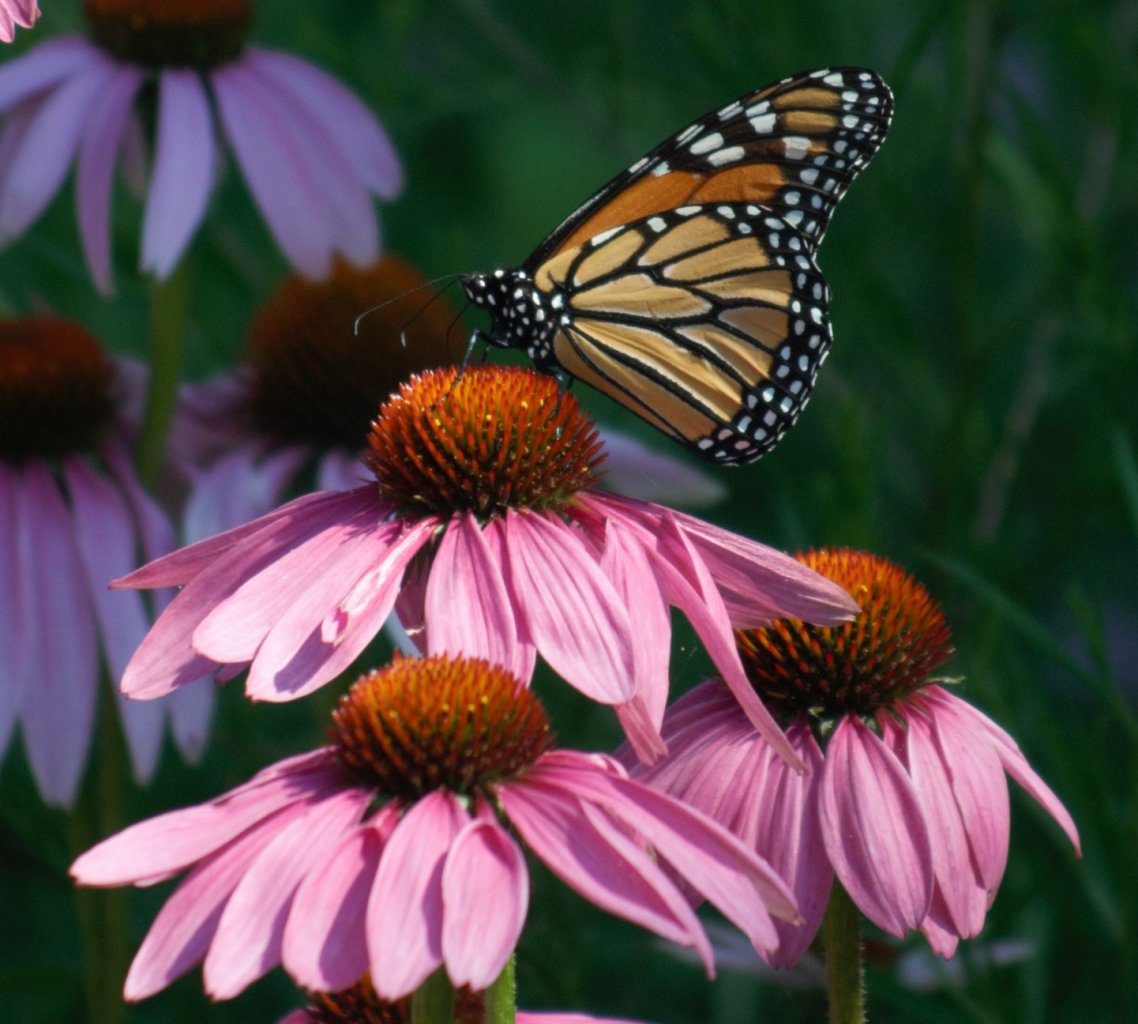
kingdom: Animalia
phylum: Arthropoda
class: Insecta
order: Lepidoptera
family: Nymphalidae
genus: Danaus
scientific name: Danaus plexippus
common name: Monarch
